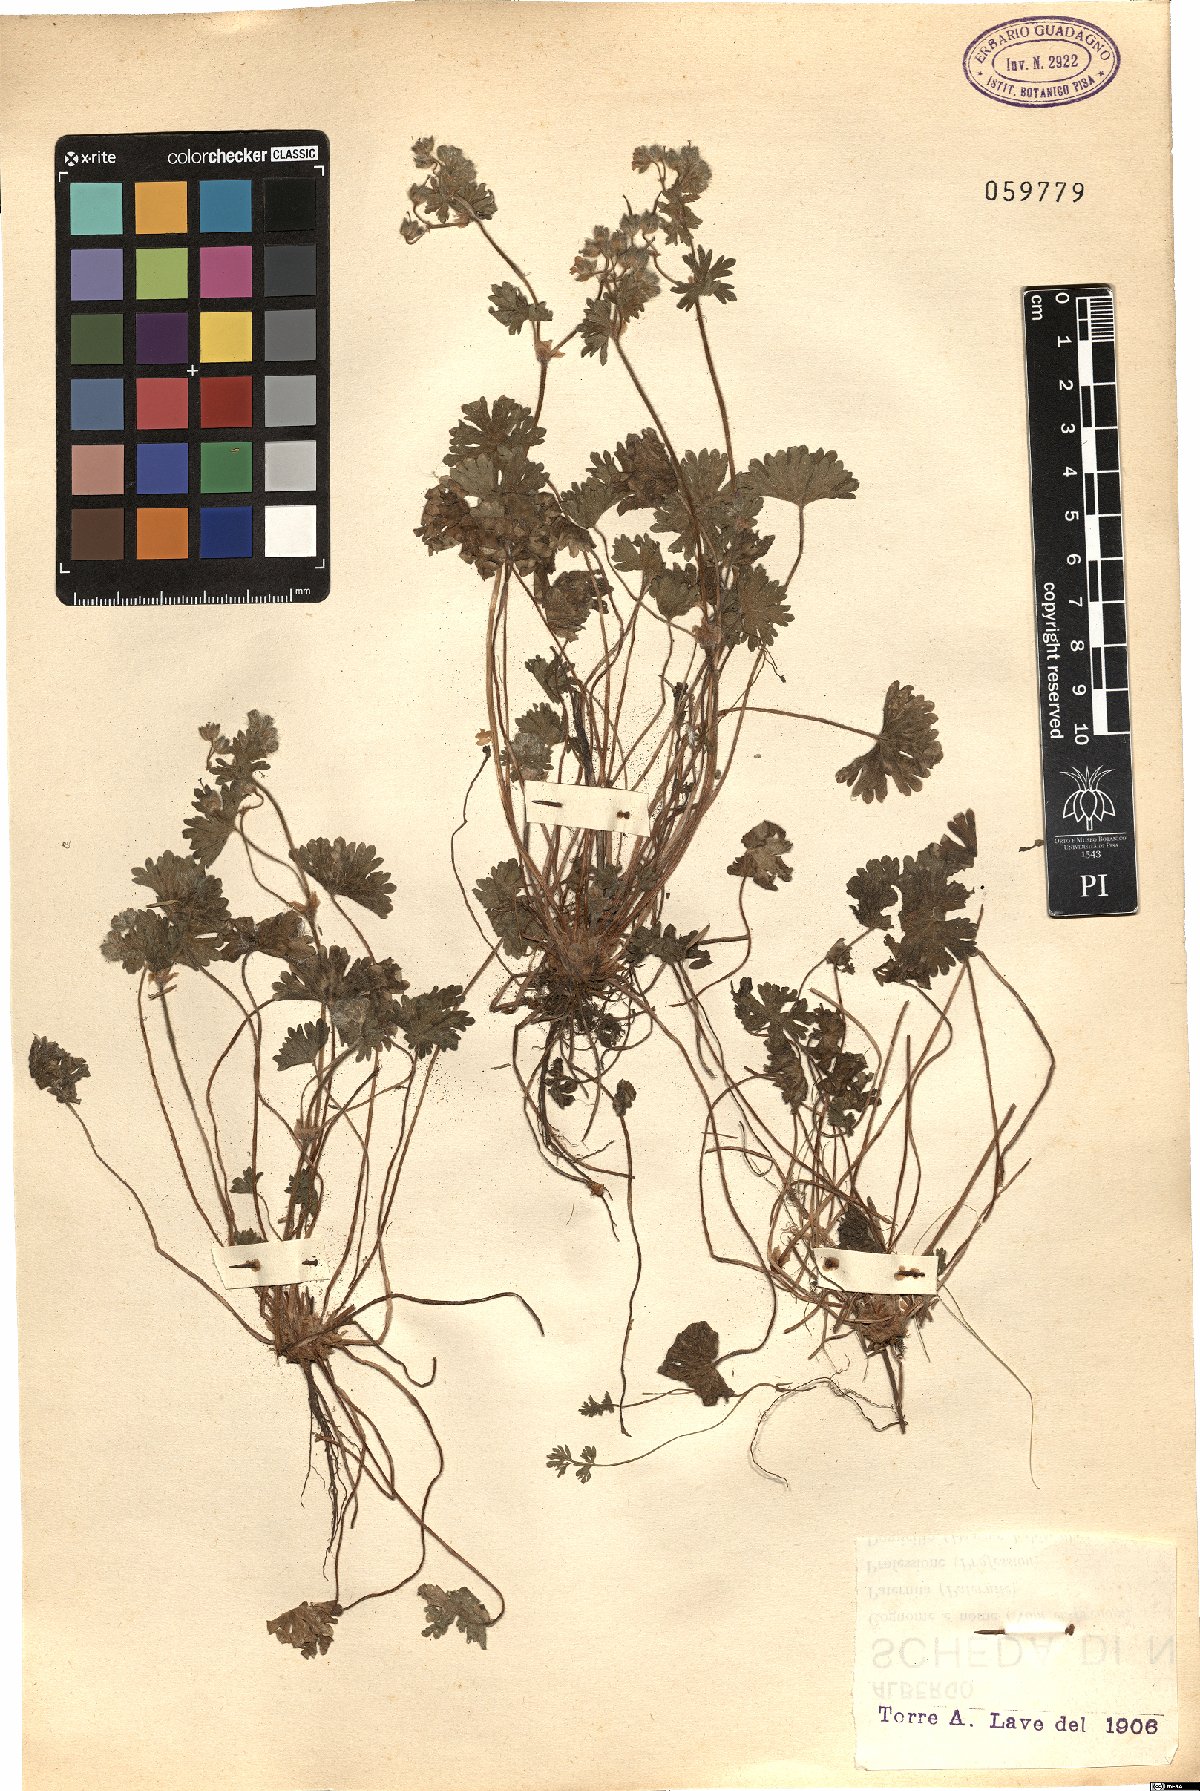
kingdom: Plantae
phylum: Tracheophyta
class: Magnoliopsida
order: Geraniales
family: Geraniaceae
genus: Geranium
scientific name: Geranium
